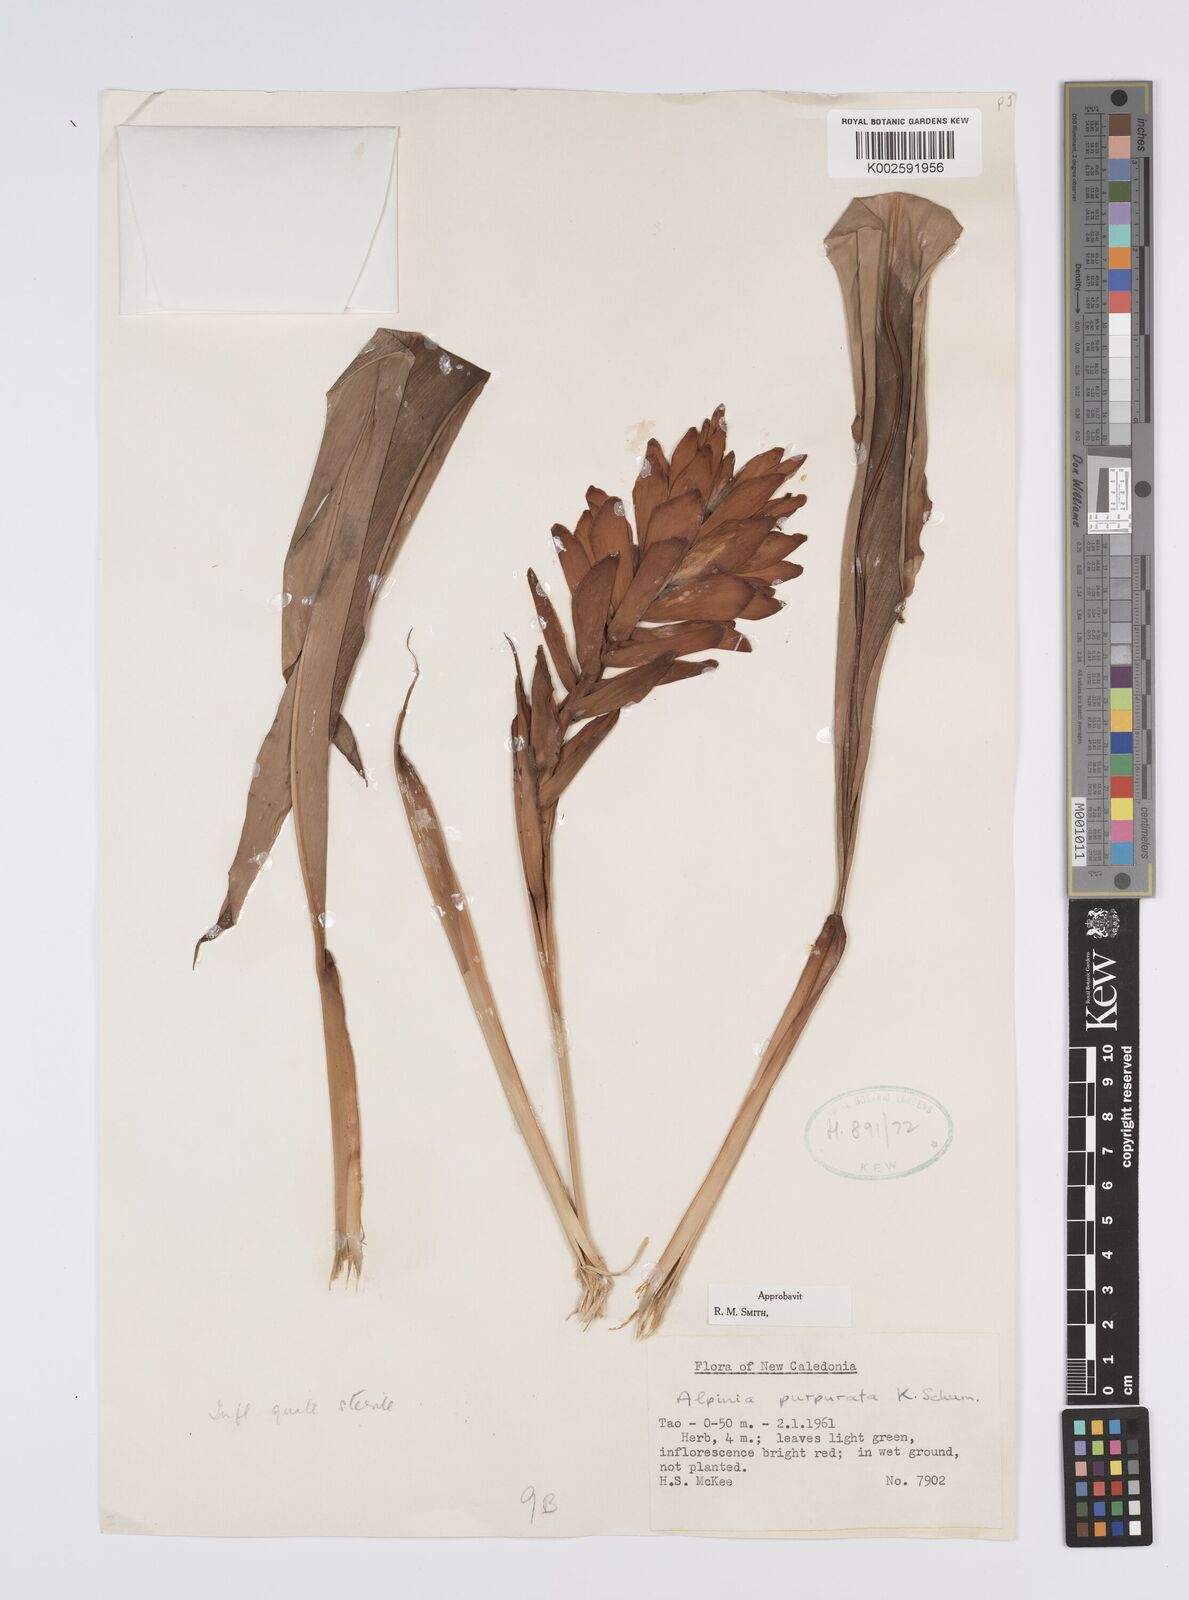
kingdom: Plantae
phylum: Tracheophyta
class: Liliopsida
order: Zingiberales
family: Zingiberaceae
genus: Alpinia
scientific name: Alpinia purpurata
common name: Red ginger
